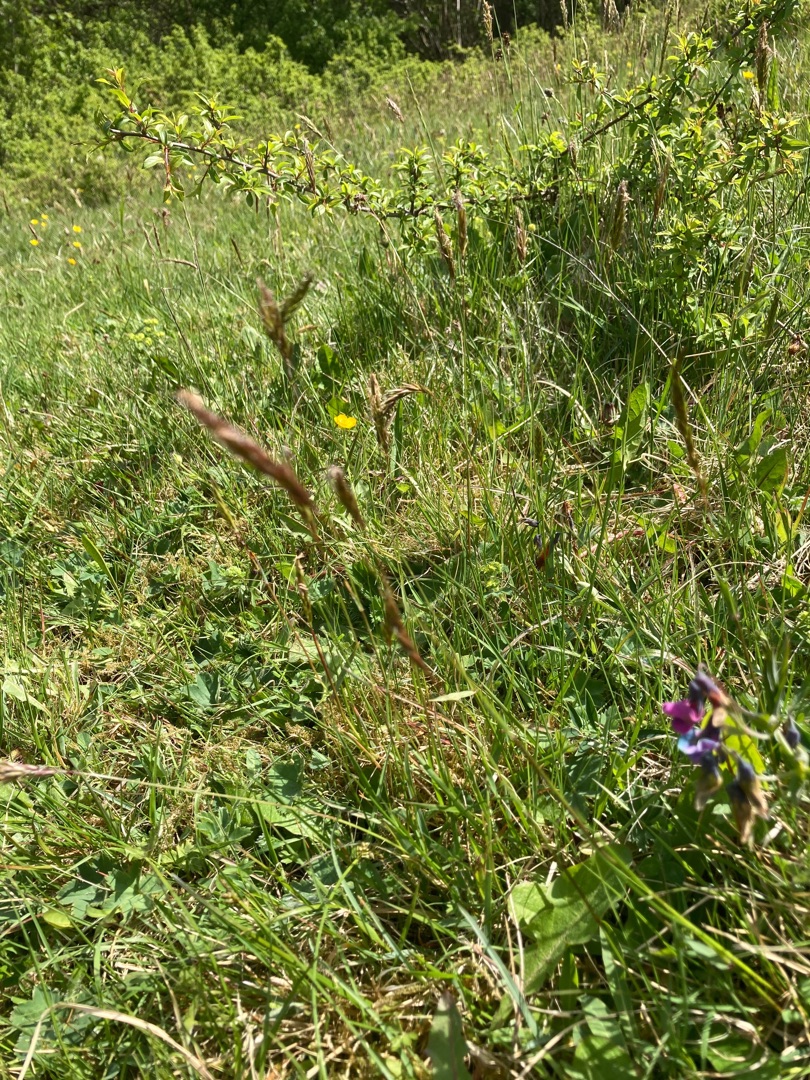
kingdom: Plantae
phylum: Tracheophyta
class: Liliopsida
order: Poales
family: Poaceae
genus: Anthoxanthum
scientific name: Anthoxanthum odoratum
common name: Vellugtende gulaks
